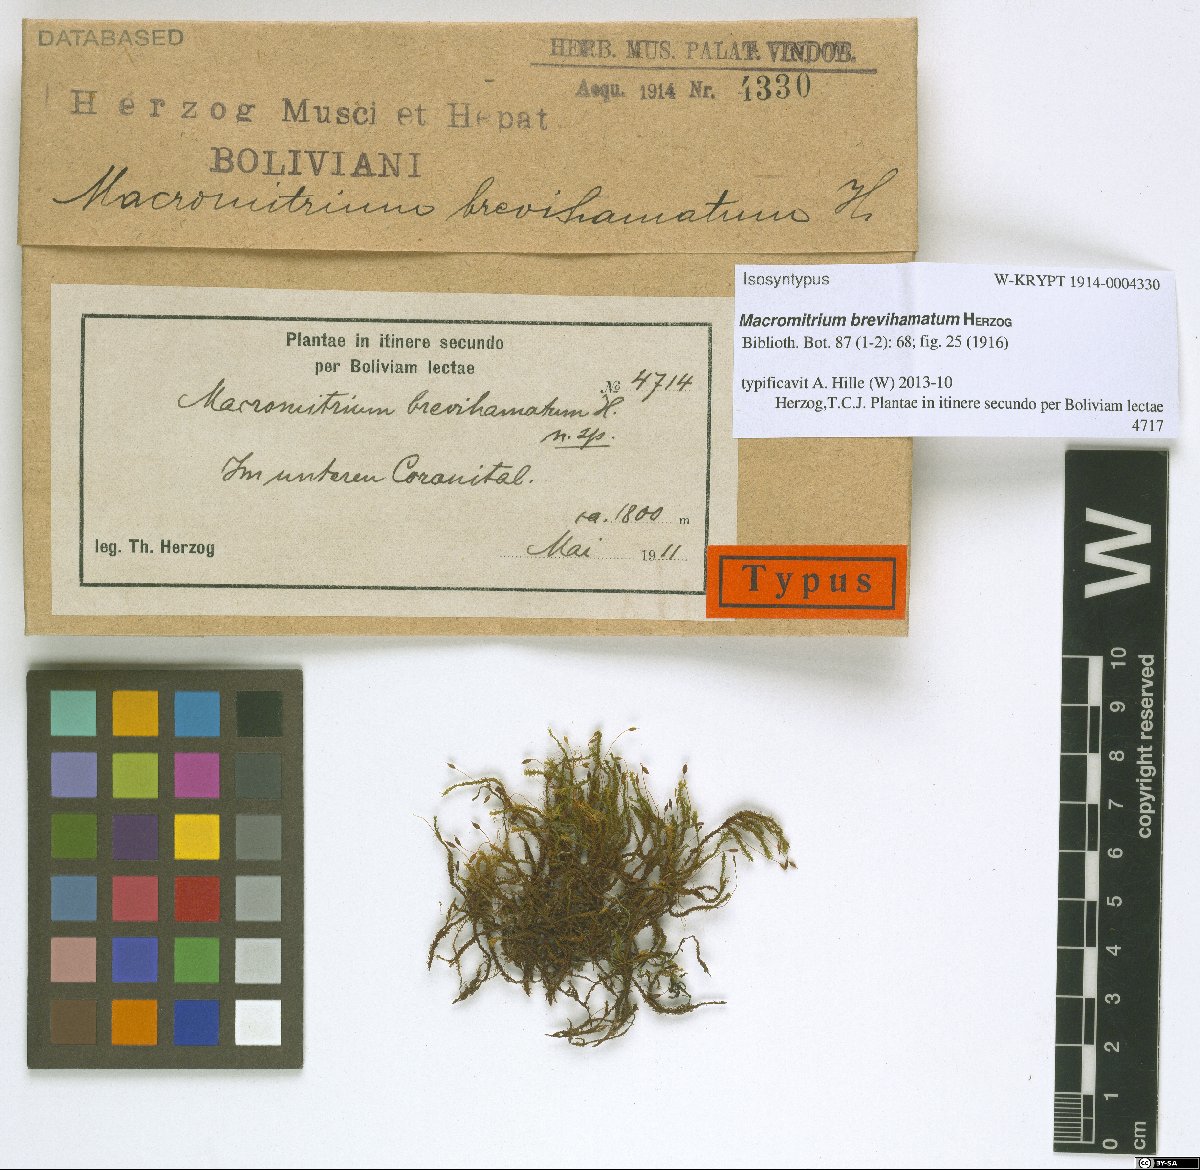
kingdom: Plantae
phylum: Bryophyta
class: Bryopsida
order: Orthotrichales
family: Orthotrichaceae
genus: Macromitrium
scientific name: Macromitrium brevihamatum
